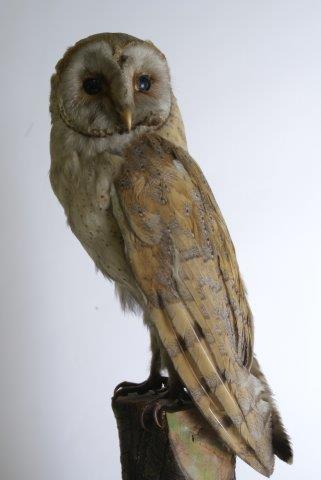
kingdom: Animalia
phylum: Chordata
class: Aves
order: Strigiformes
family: Tytonidae
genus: Tyto
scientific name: Tyto alba
